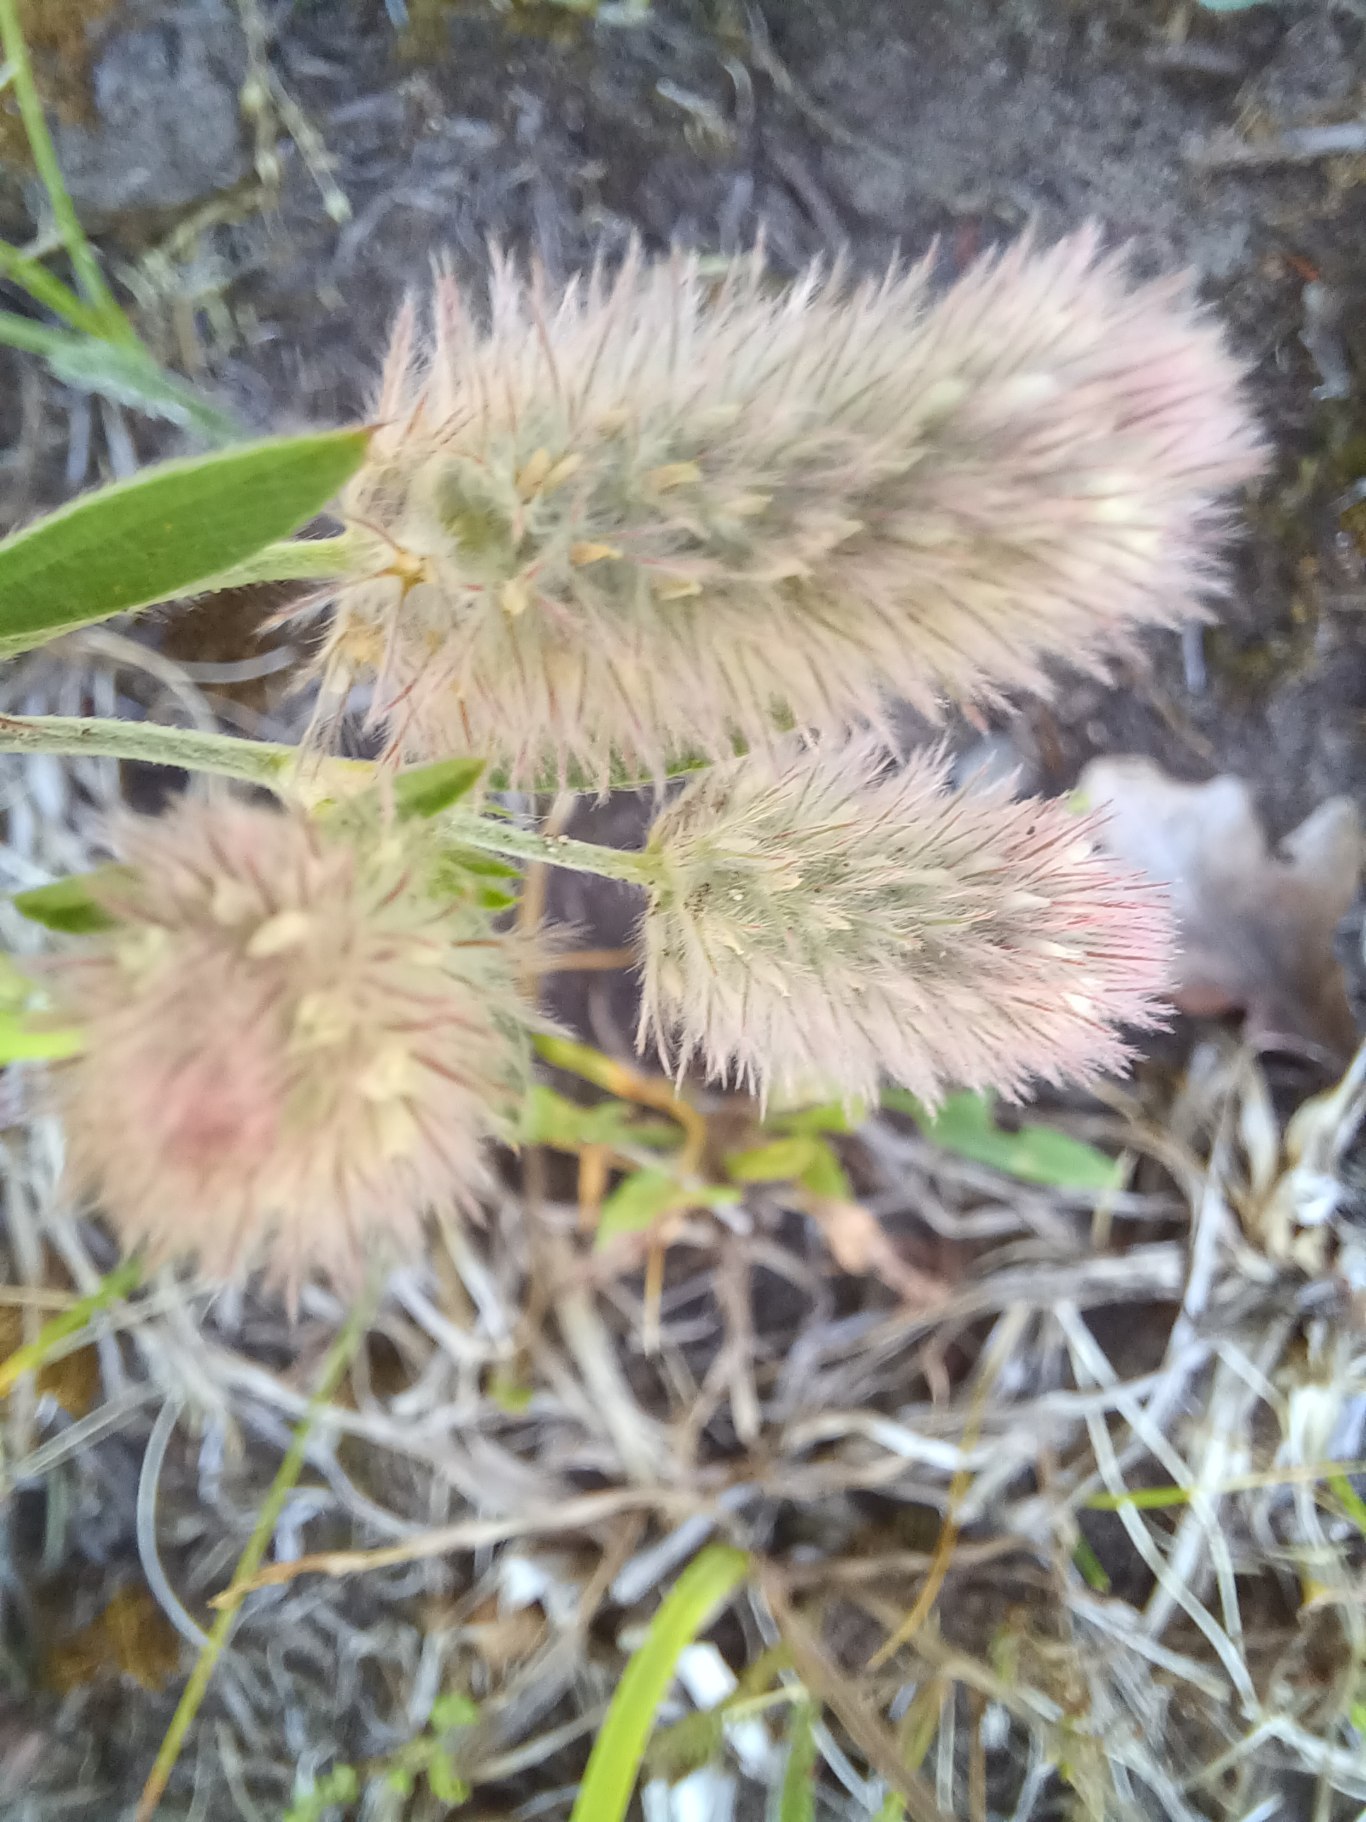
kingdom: Plantae
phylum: Tracheophyta
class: Magnoliopsida
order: Fabales
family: Fabaceae
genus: Trifolium
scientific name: Trifolium arvense
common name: Hare-kløver
